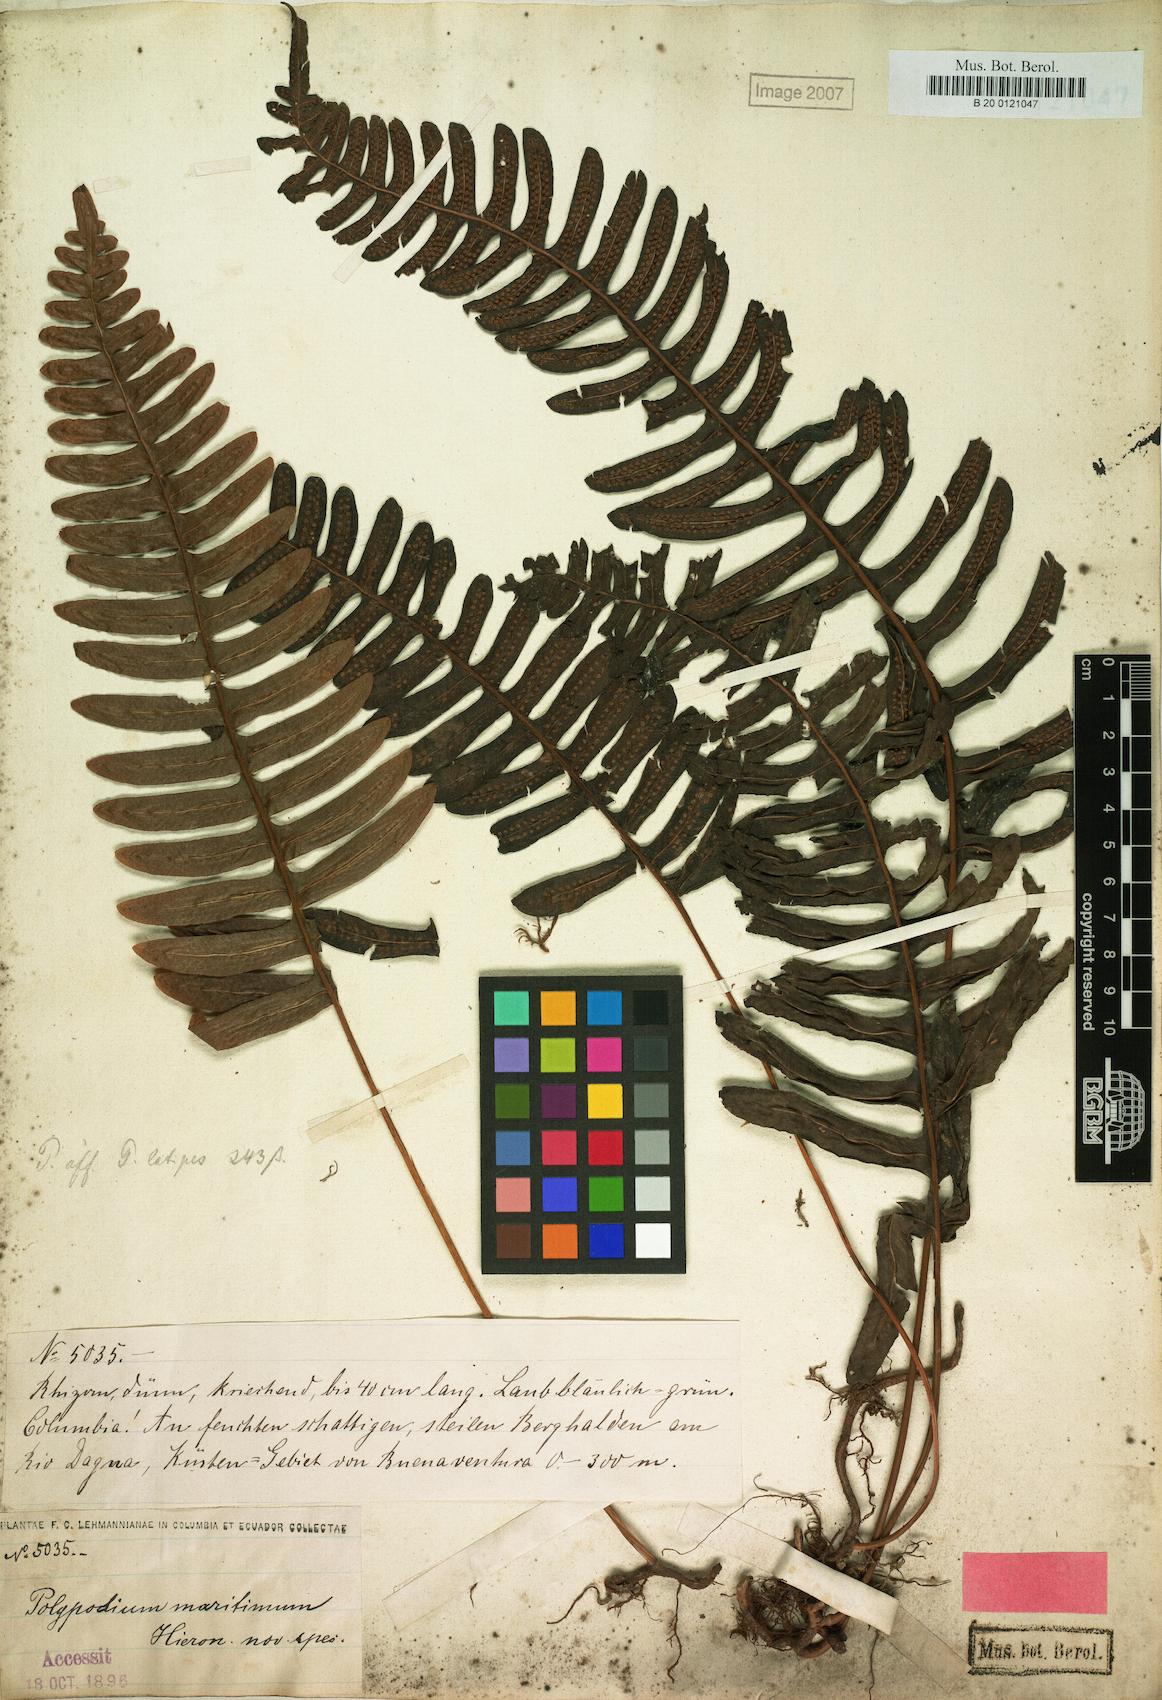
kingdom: Plantae
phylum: Tracheophyta
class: Polypodiopsida
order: Polypodiales
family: Polypodiaceae
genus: Serpocaulon
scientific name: Serpocaulon maritimum
